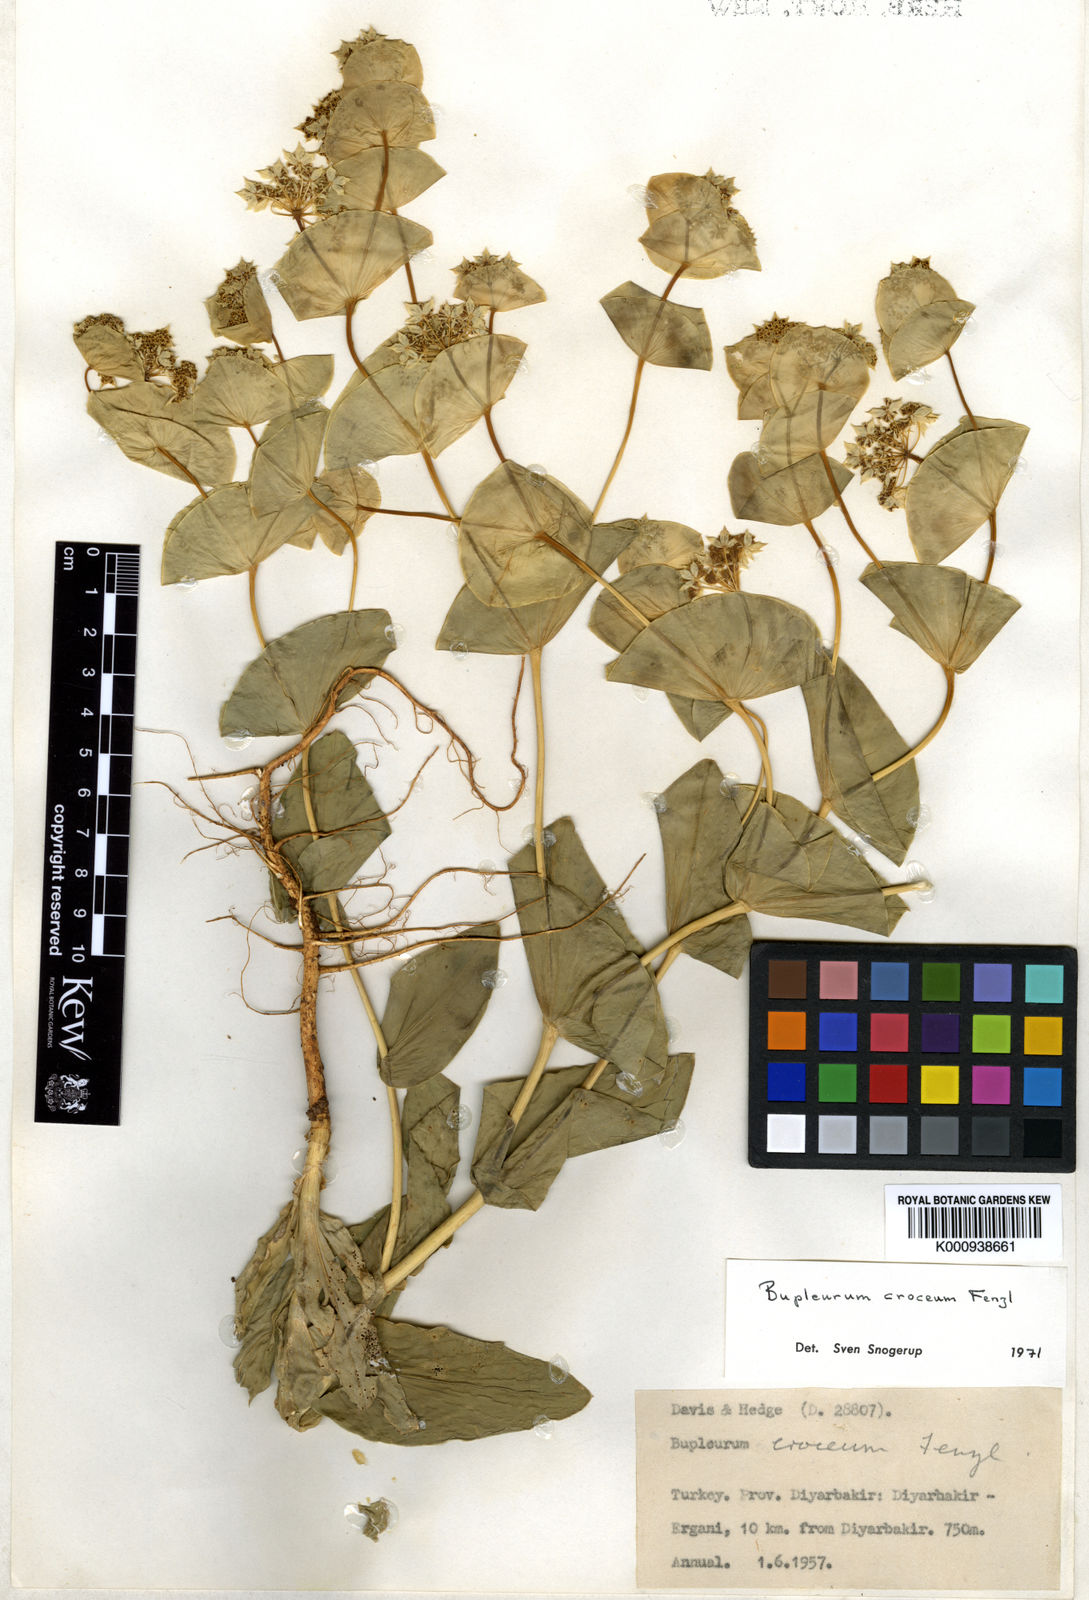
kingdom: Plantae
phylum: Tracheophyta
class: Magnoliopsida
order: Apiales
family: Apiaceae
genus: Bupleurum
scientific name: Bupleurum croceum
